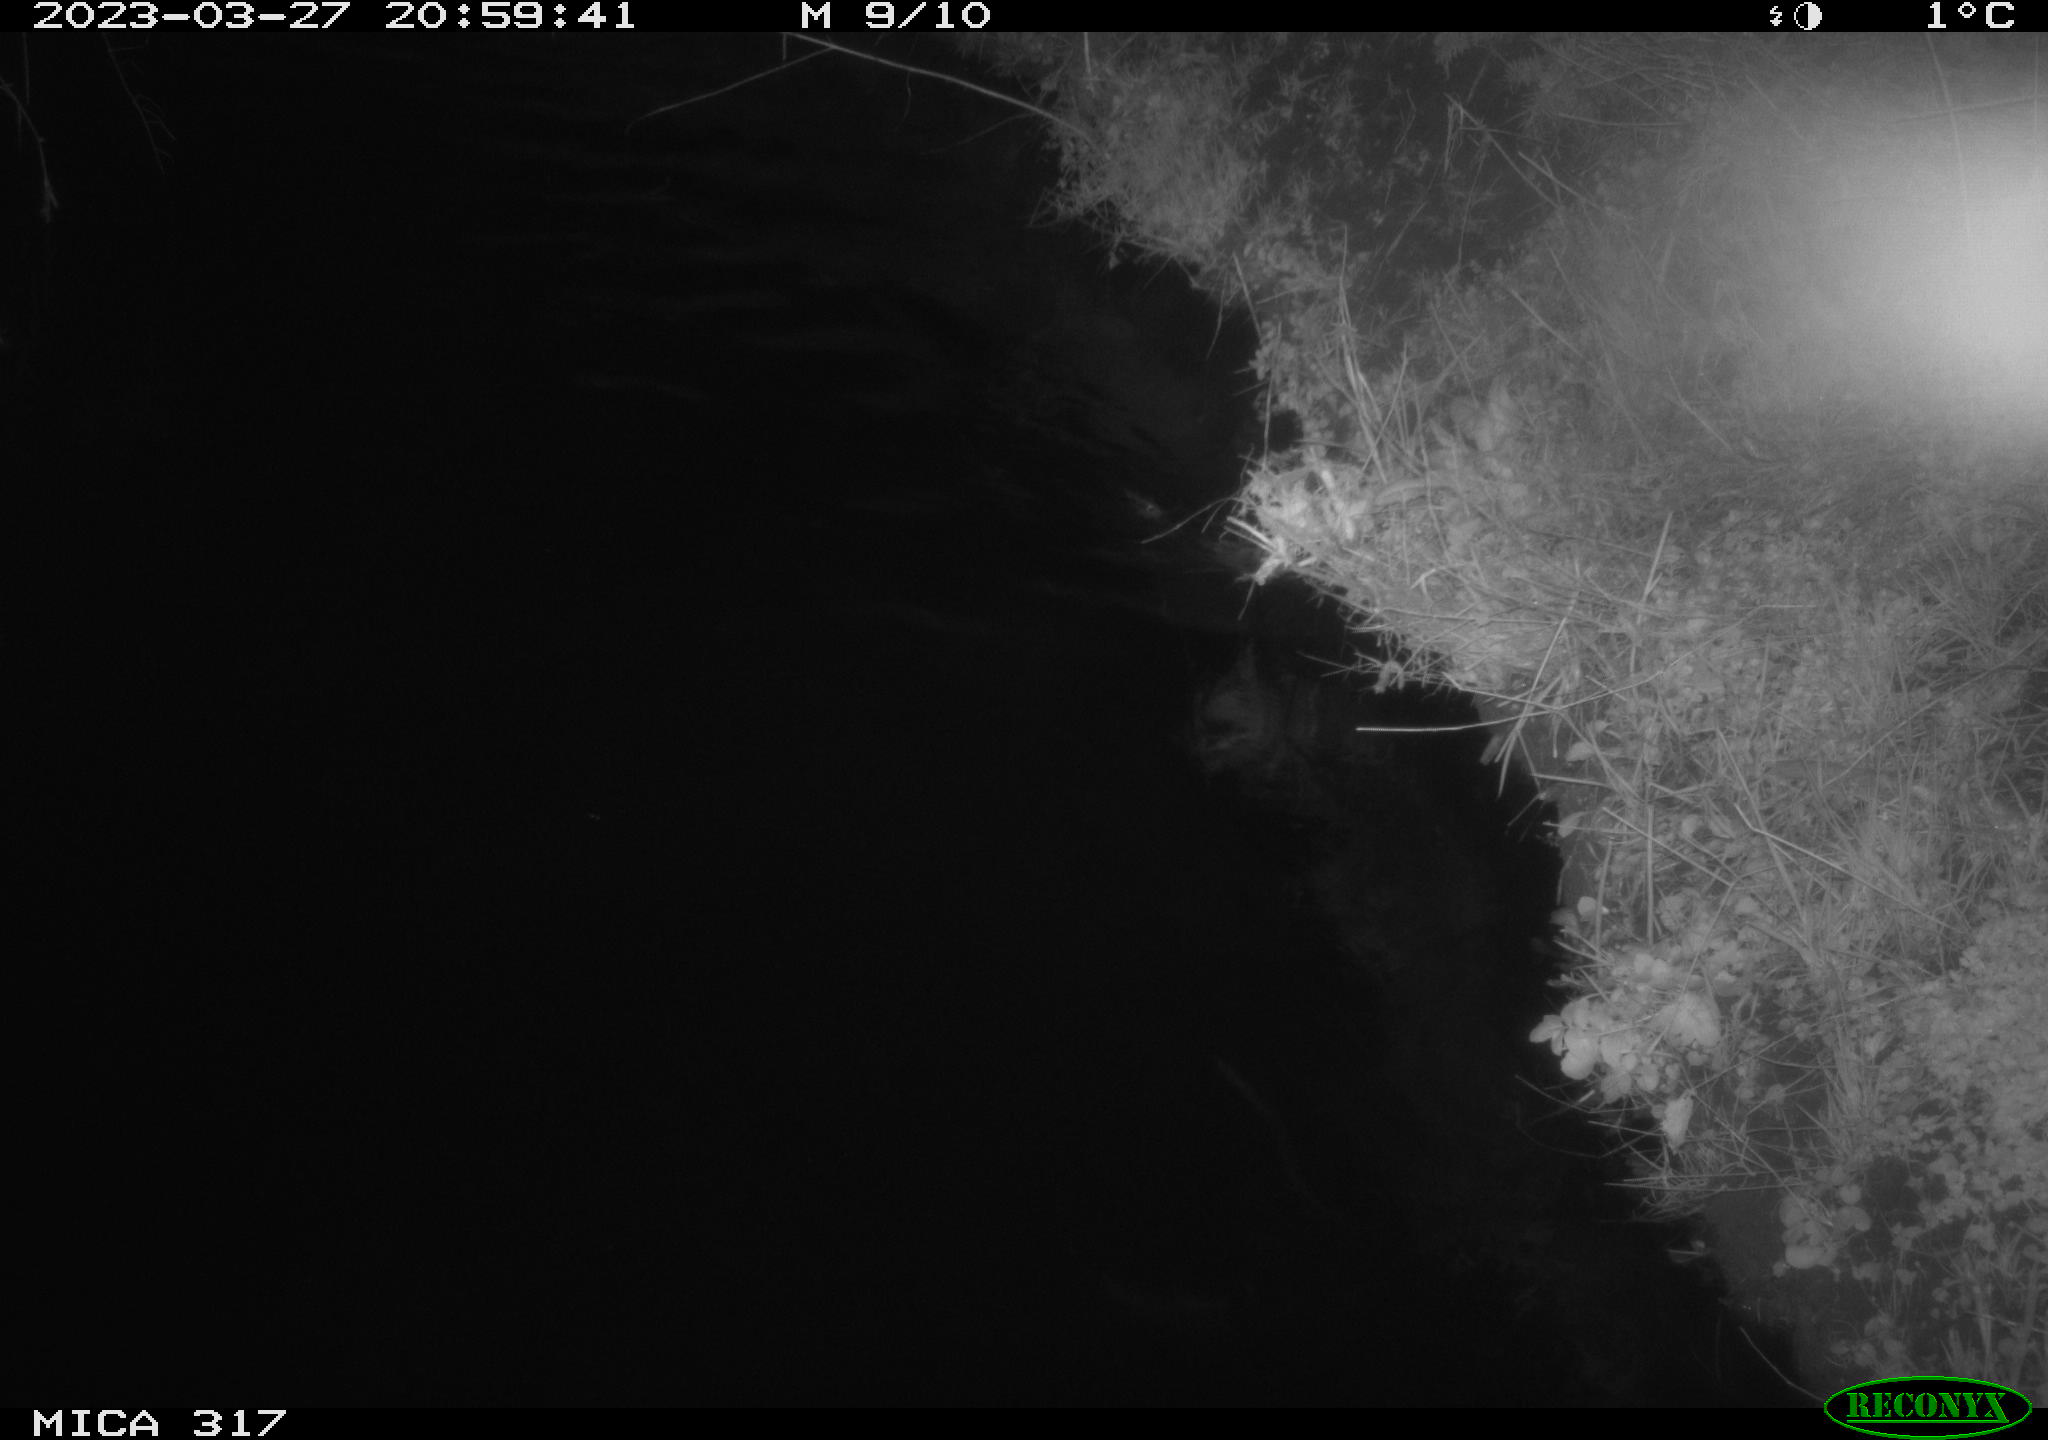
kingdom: Animalia
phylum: Chordata
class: Aves
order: Anseriformes
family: Anatidae
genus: Anas
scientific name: Anas
